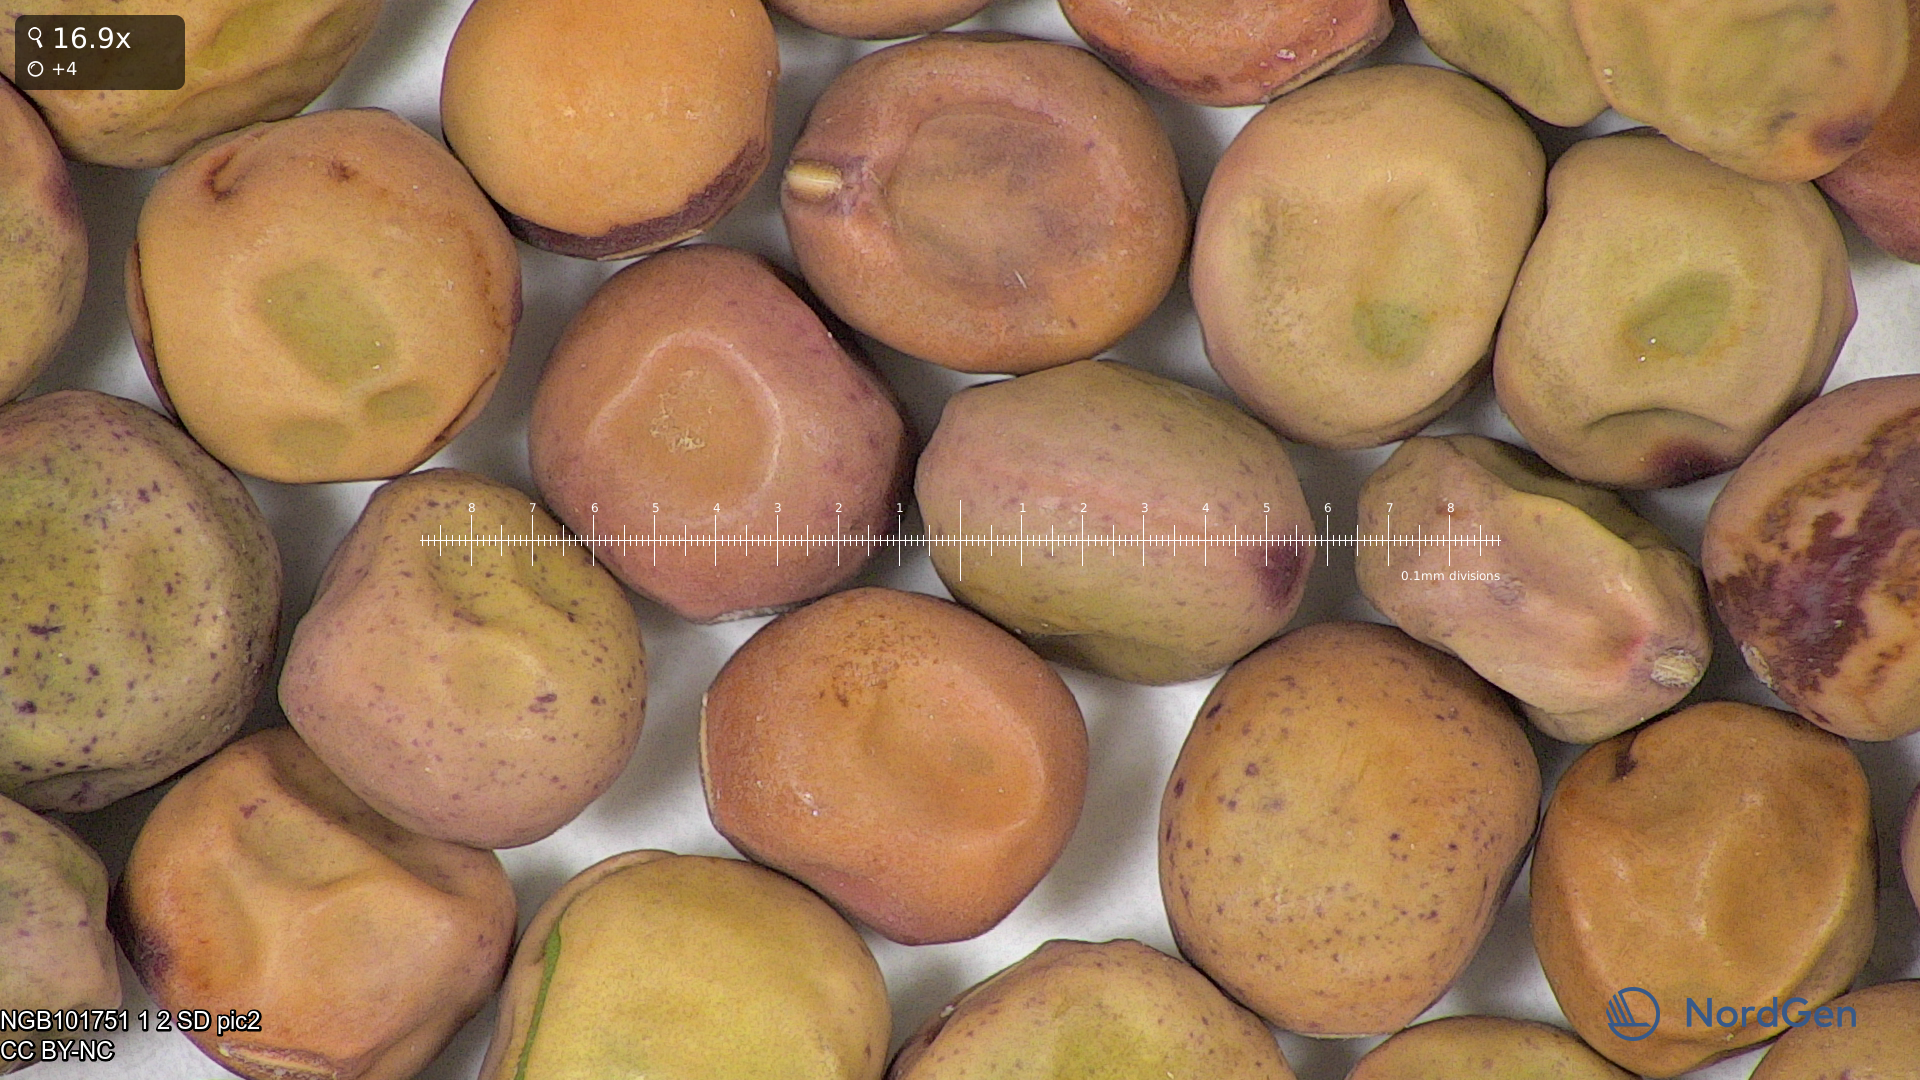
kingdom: Plantae
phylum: Tracheophyta
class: Magnoliopsida
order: Fabales
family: Fabaceae
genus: Lathyrus
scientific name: Lathyrus oleraceus
